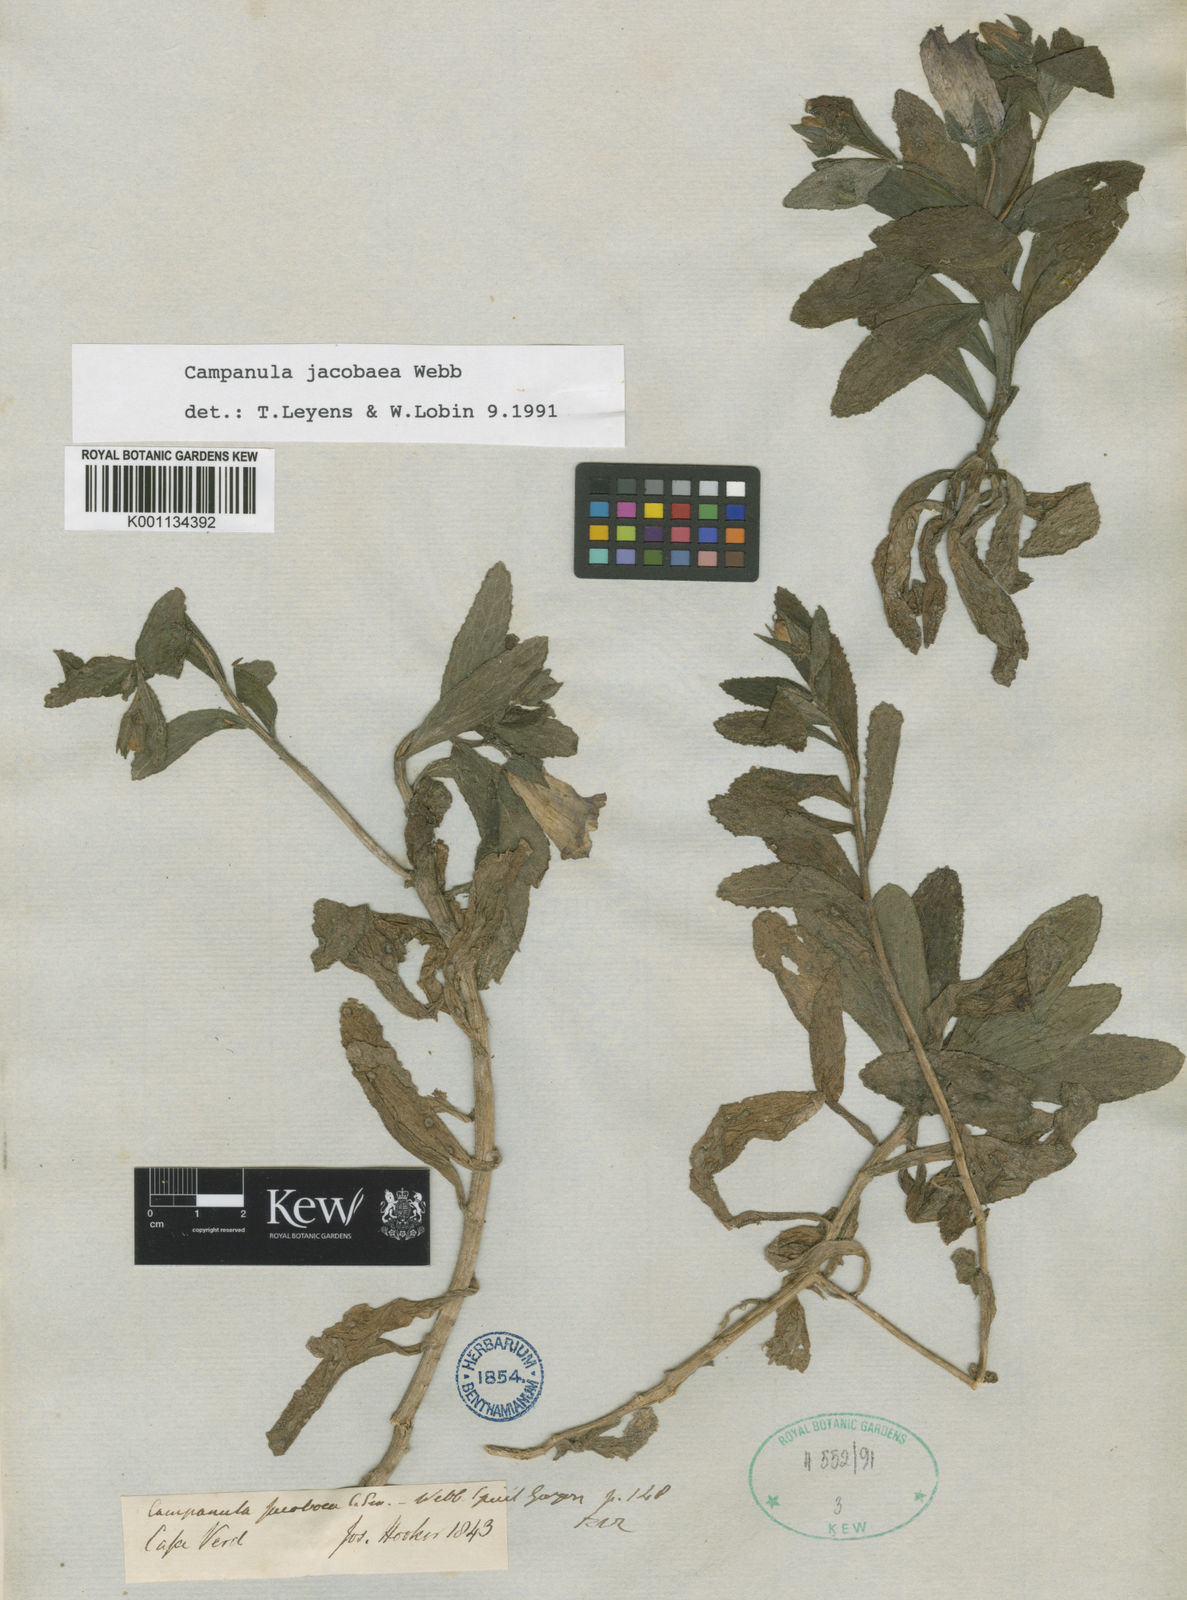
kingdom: Plantae
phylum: Tracheophyta
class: Magnoliopsida
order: Asterales
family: Campanulaceae
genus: Campanula
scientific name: Campanula
